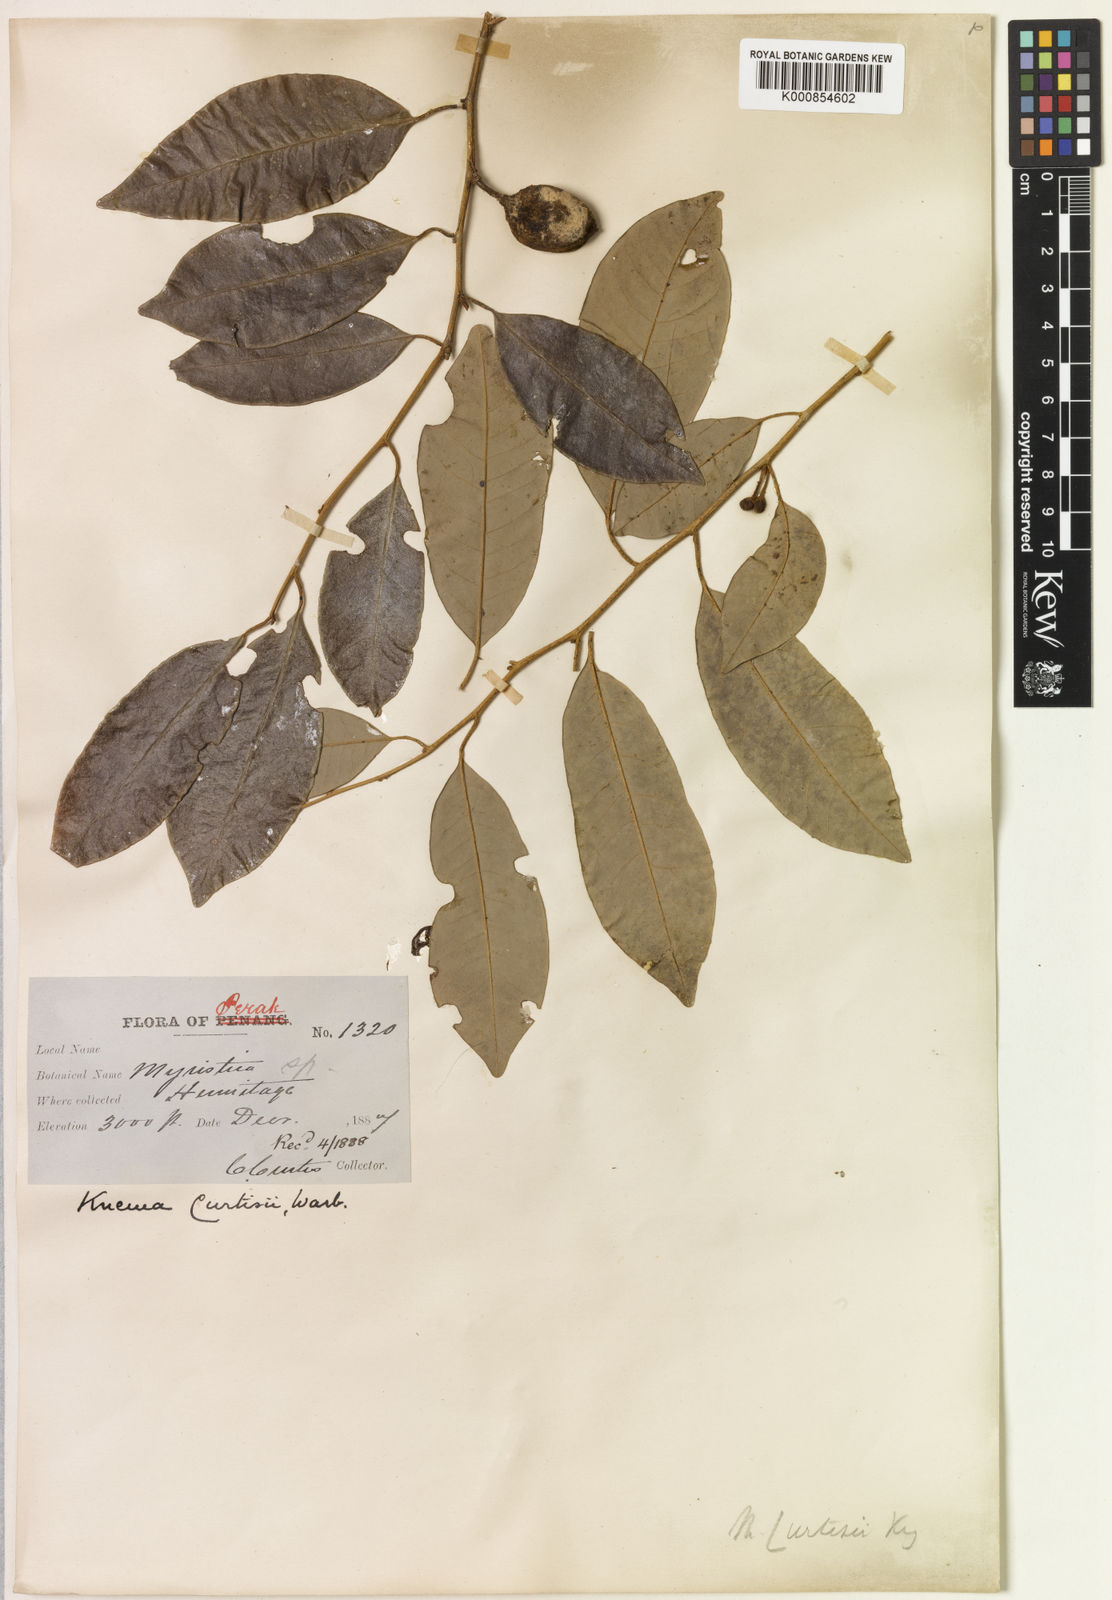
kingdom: Plantae
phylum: Tracheophyta
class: Magnoliopsida
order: Magnoliales
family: Myristicaceae
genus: Knema
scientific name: Knema curtisii
